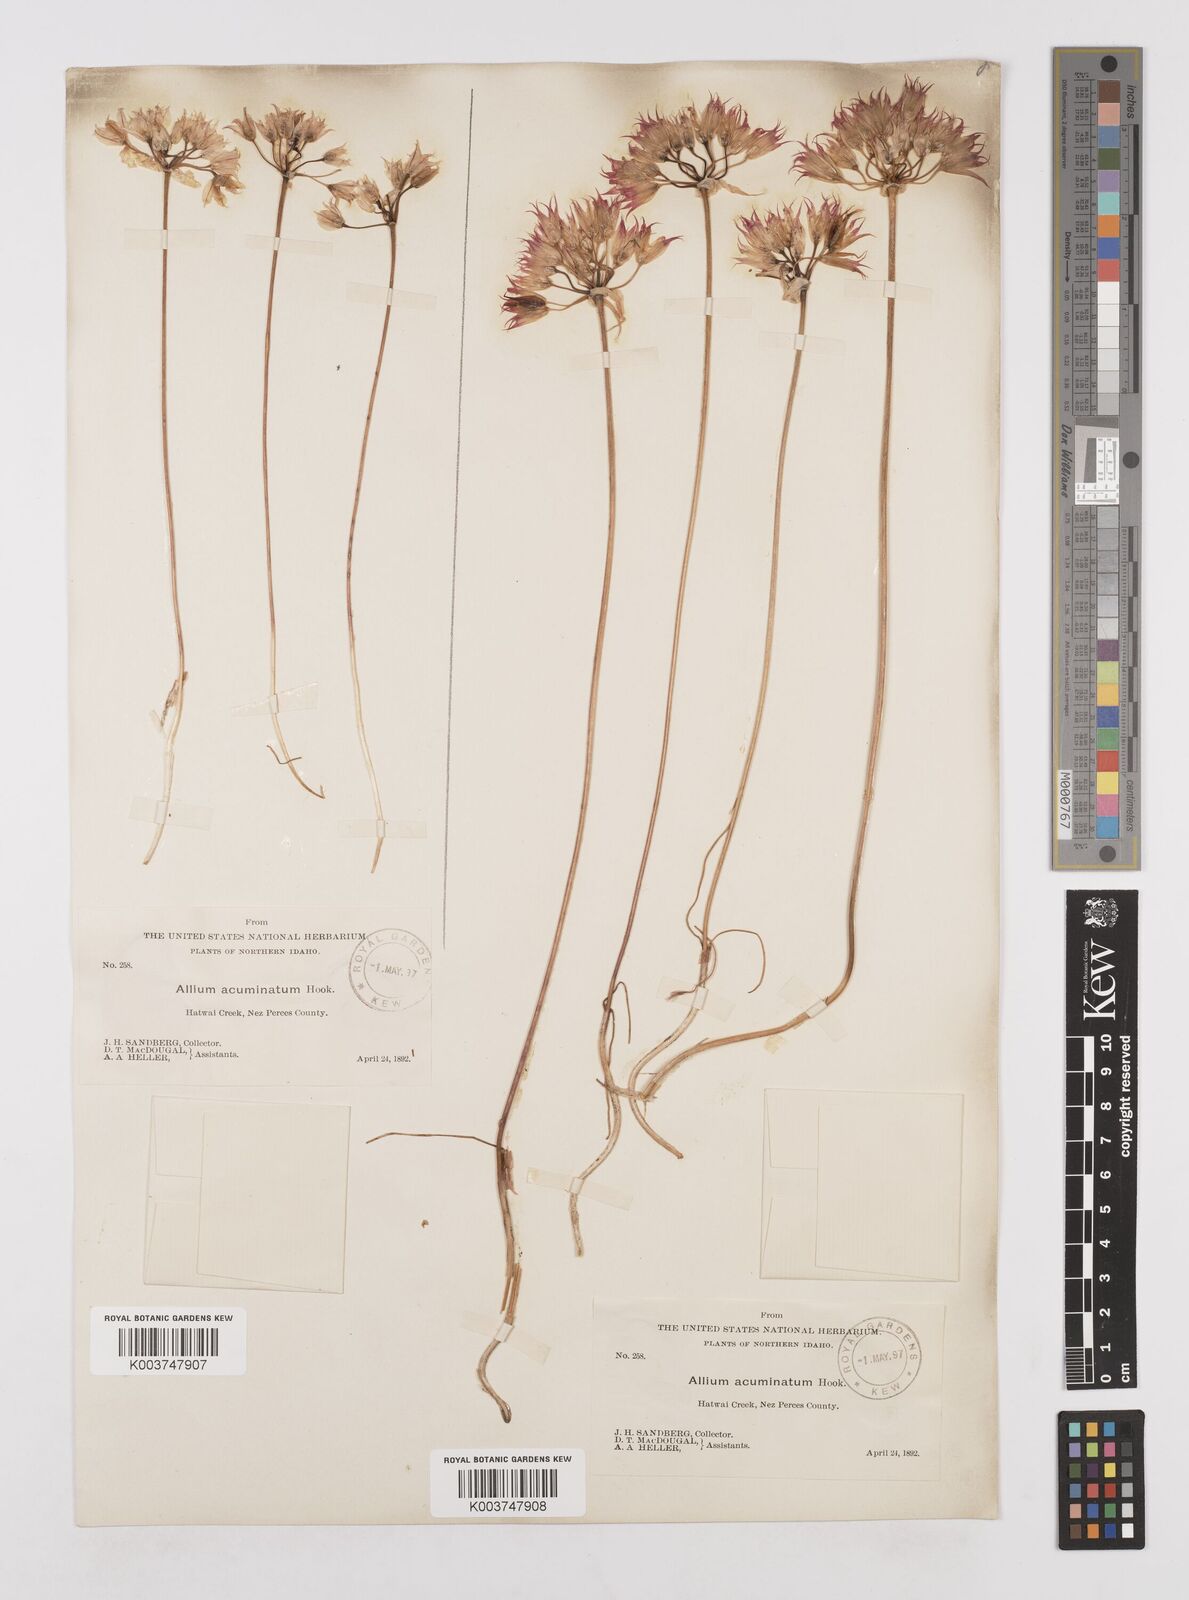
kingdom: Plantae
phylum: Tracheophyta
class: Liliopsida
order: Asparagales
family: Amaryllidaceae
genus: Allium
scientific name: Allium acuminatum
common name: Hooker's onion
